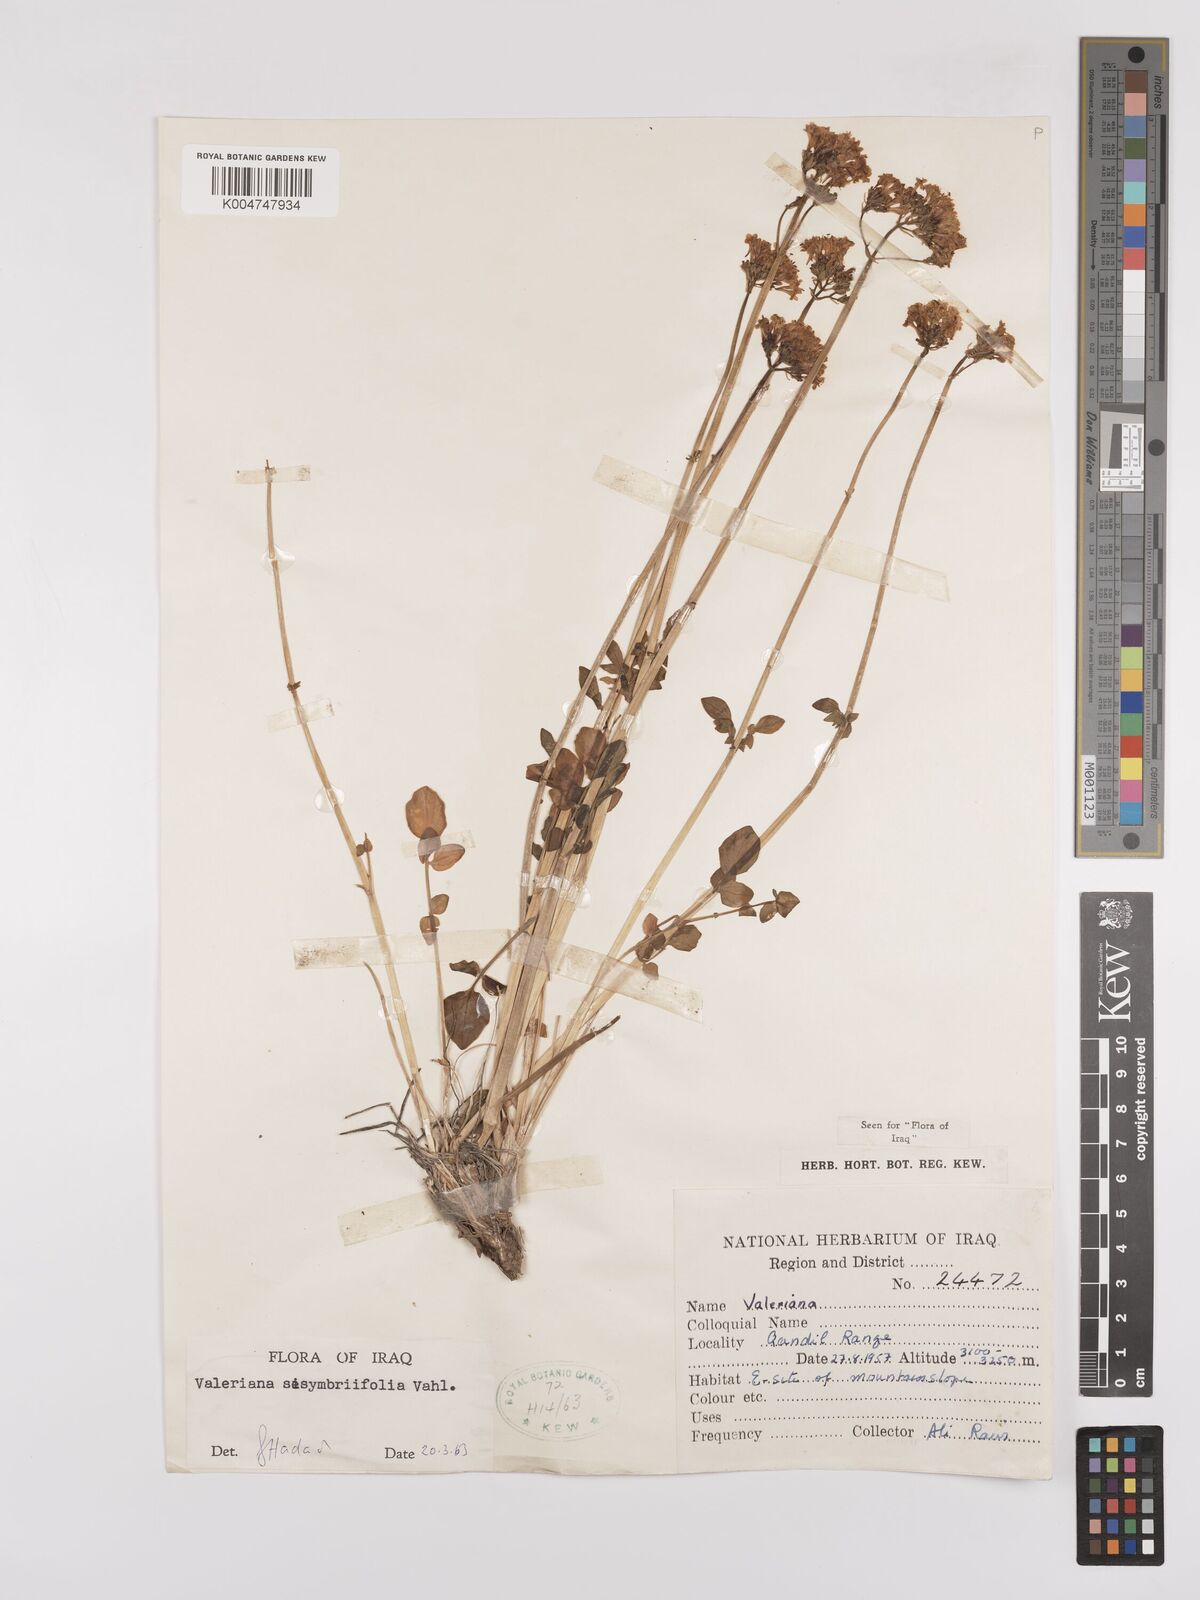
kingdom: Plantae
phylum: Tracheophyta
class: Magnoliopsida
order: Dipsacales
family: Caprifoliaceae
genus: Valeriana
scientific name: Valeriana
